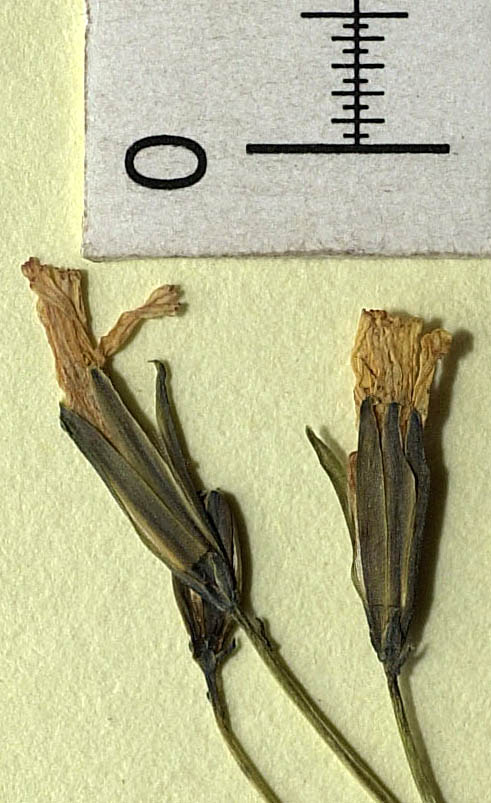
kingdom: Plantae
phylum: Tracheophyta
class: Magnoliopsida
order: Asterales
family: Asteraceae
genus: Askellia
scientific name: Askellia flexuosa
